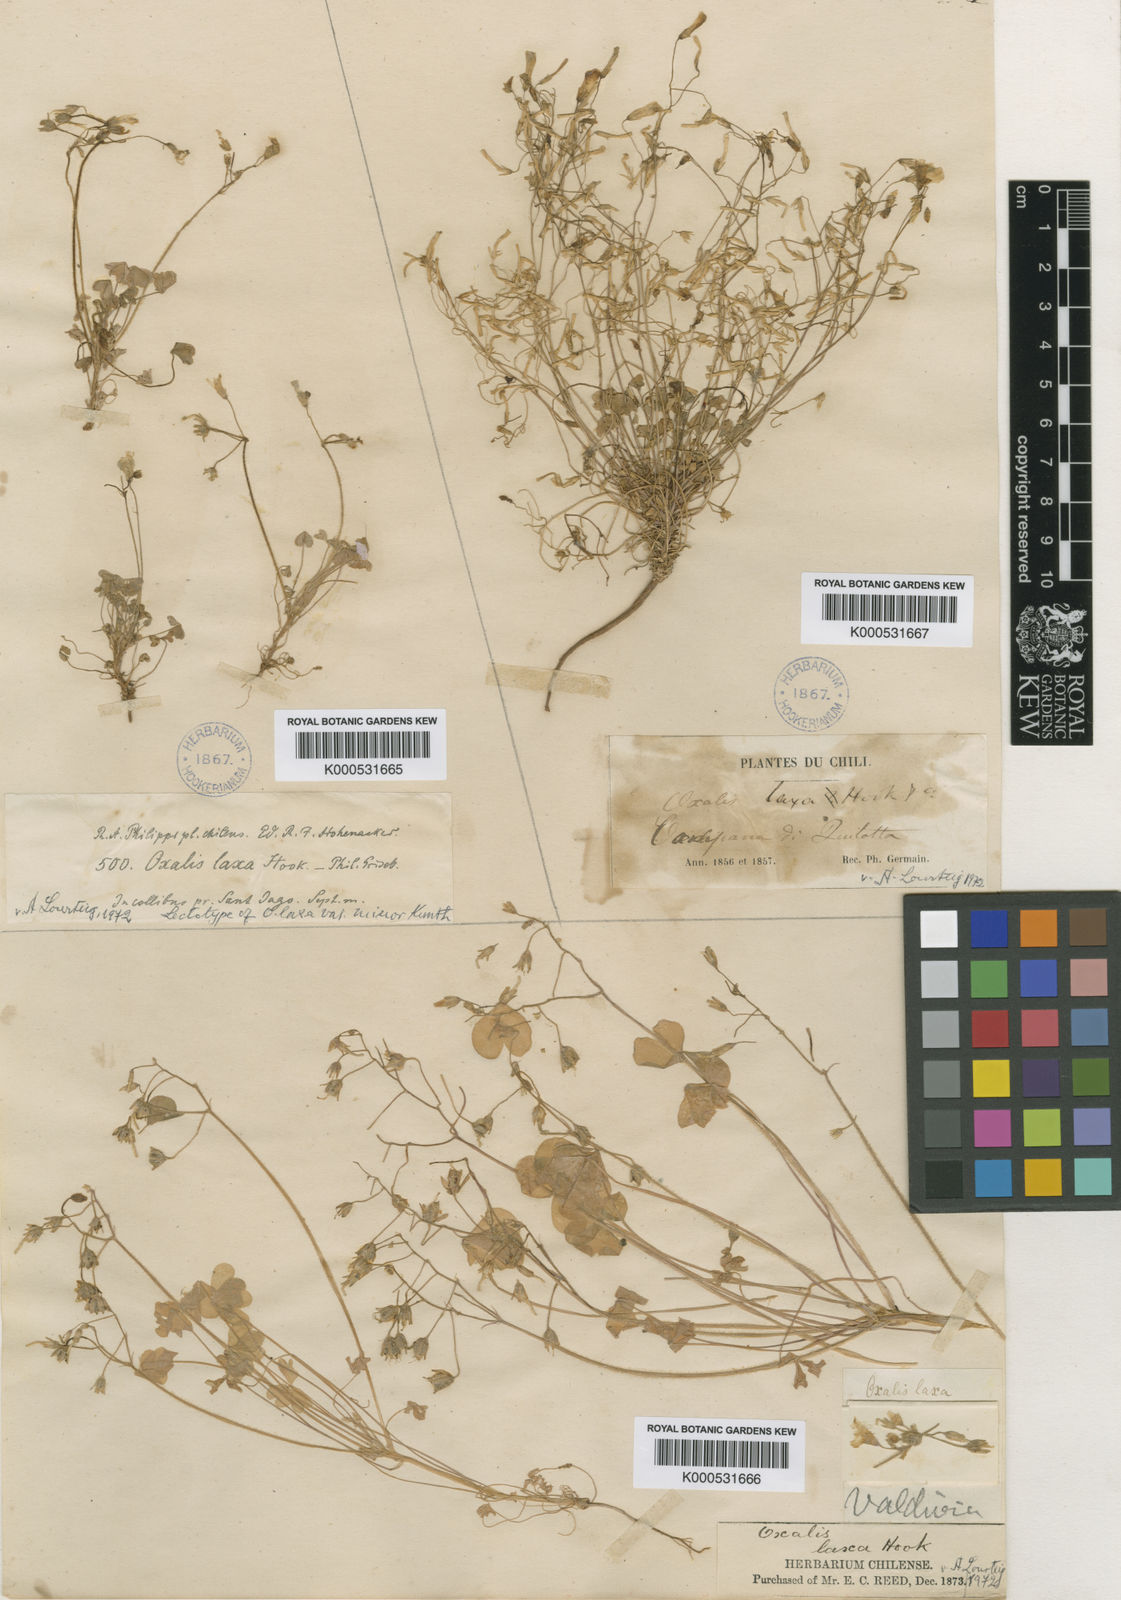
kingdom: Plantae
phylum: Tracheophyta
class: Magnoliopsida
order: Oxalidales
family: Oxalidaceae
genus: Oxalis
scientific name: Oxalis laxa
